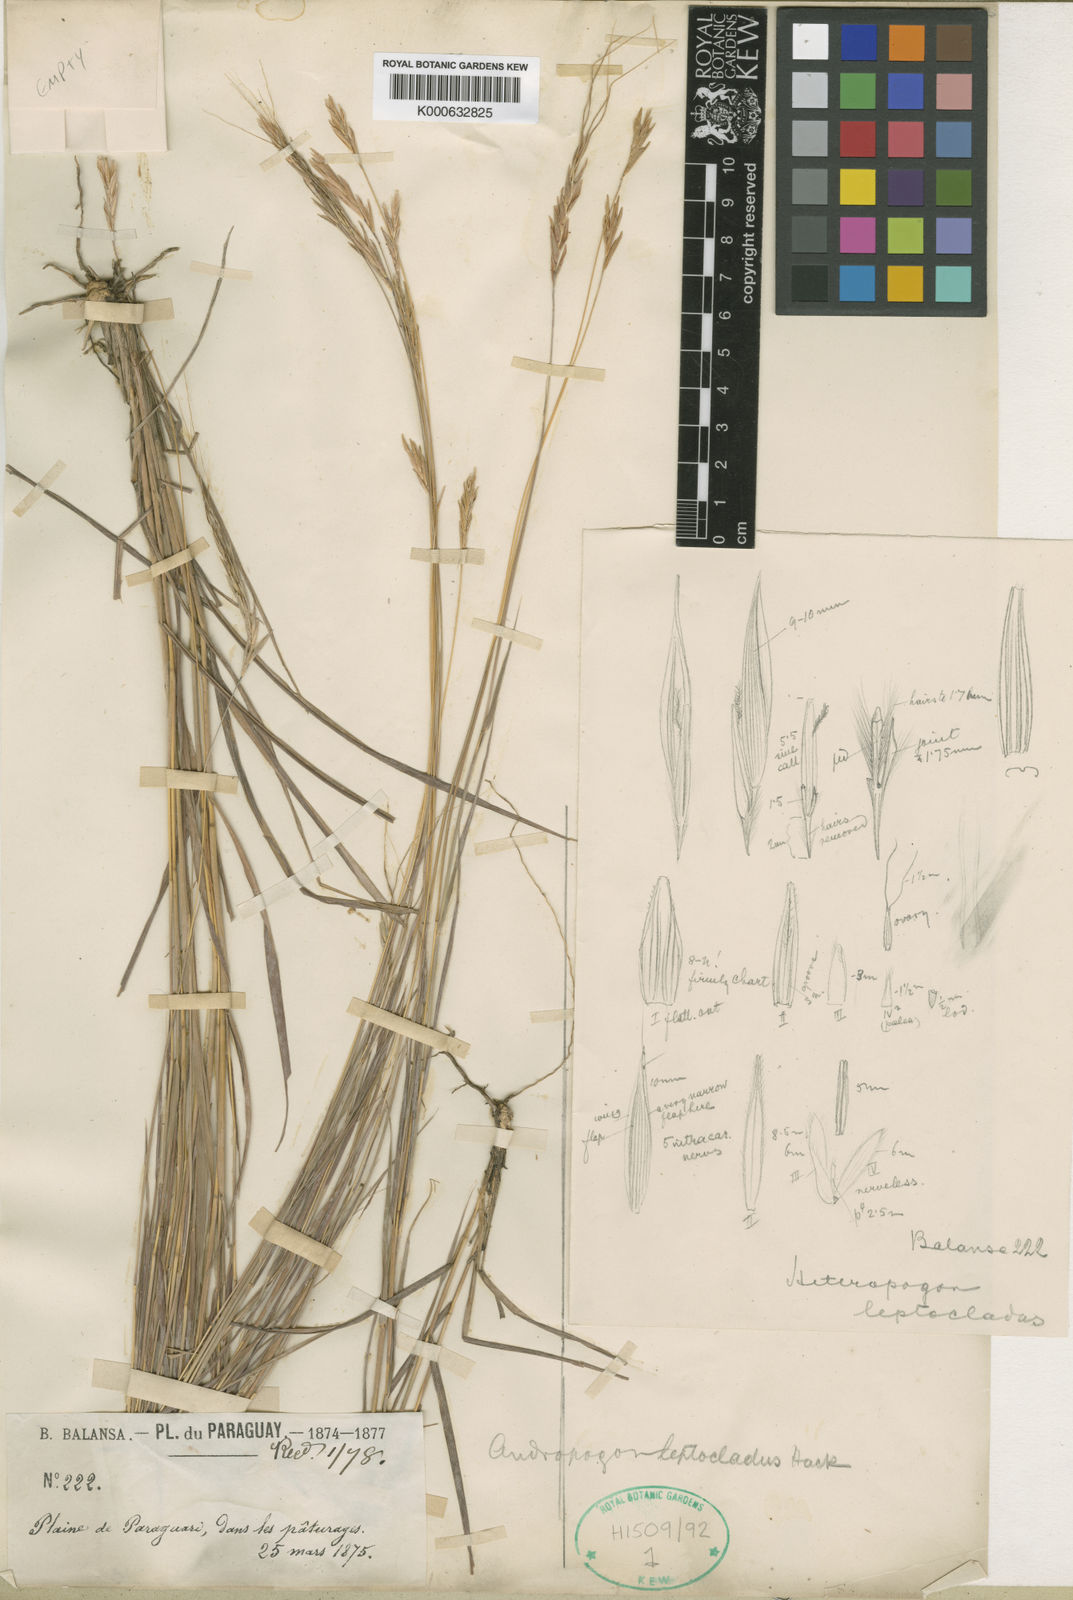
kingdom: Plantae
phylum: Tracheophyta
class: Liliopsida
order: Poales
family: Poaceae
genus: Agenium
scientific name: Agenium leptocladum
